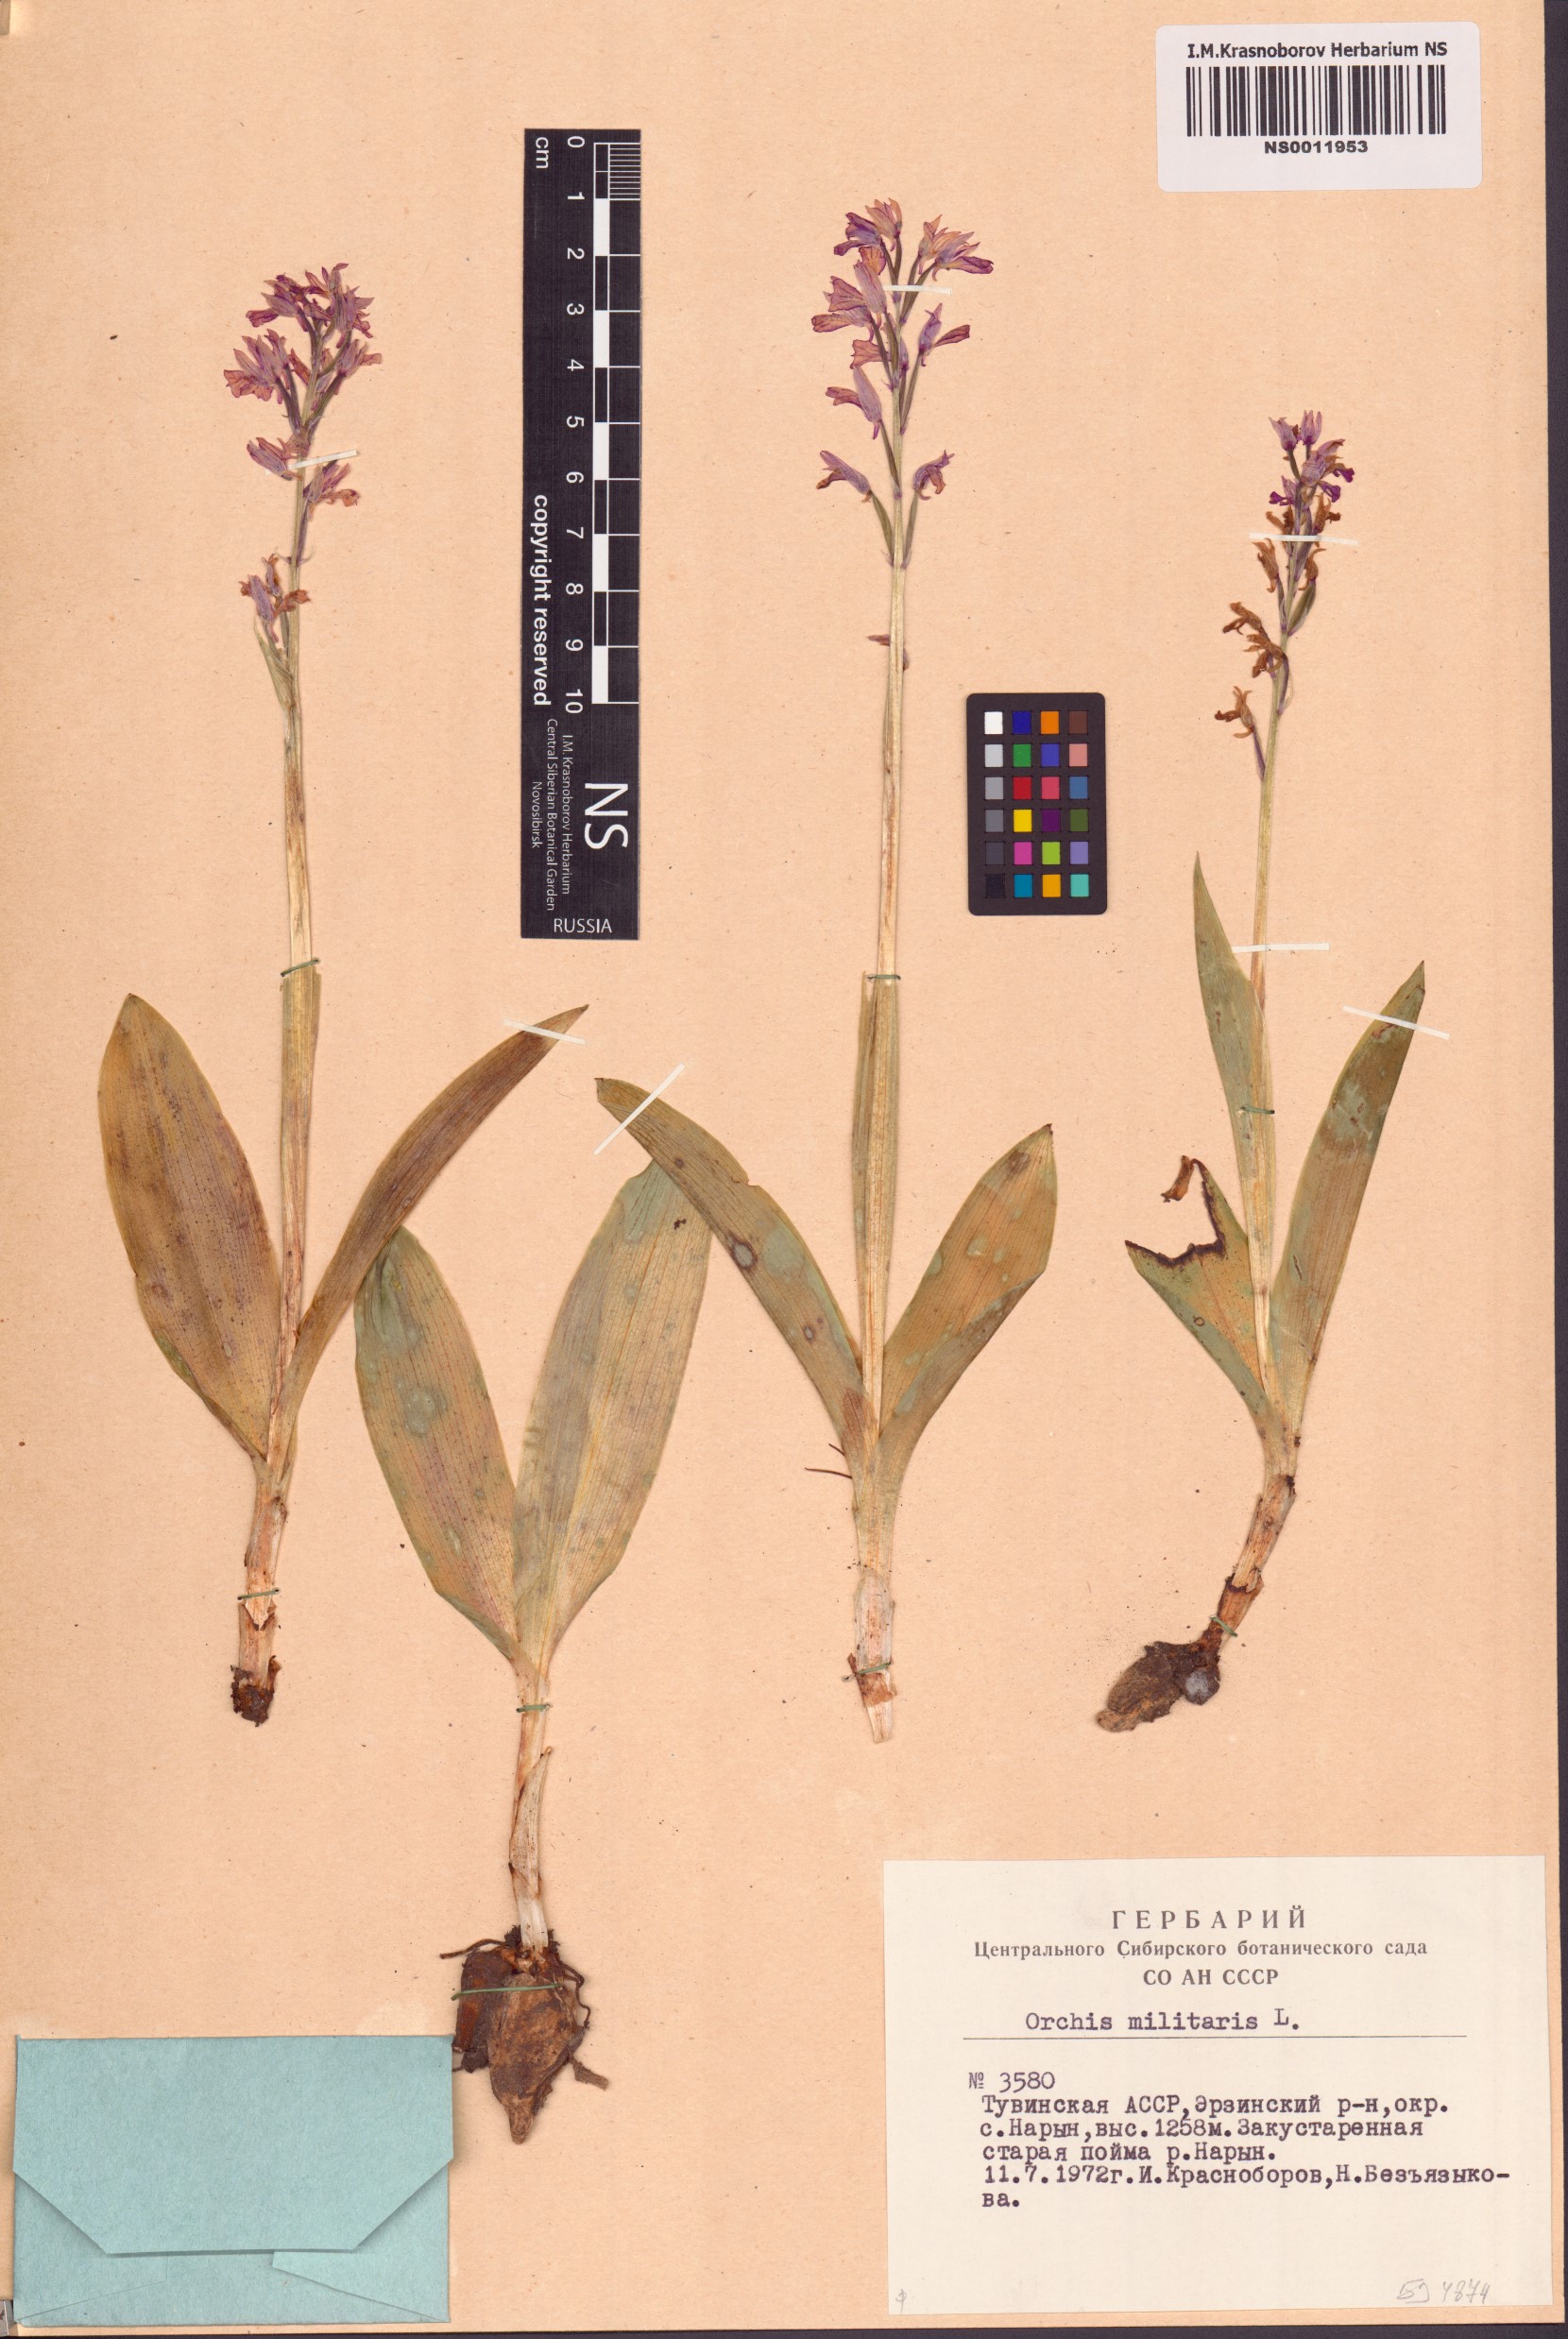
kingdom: Plantae
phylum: Tracheophyta
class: Liliopsida
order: Asparagales
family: Orchidaceae
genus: Orchis
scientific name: Orchis militaris
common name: Military orchid
